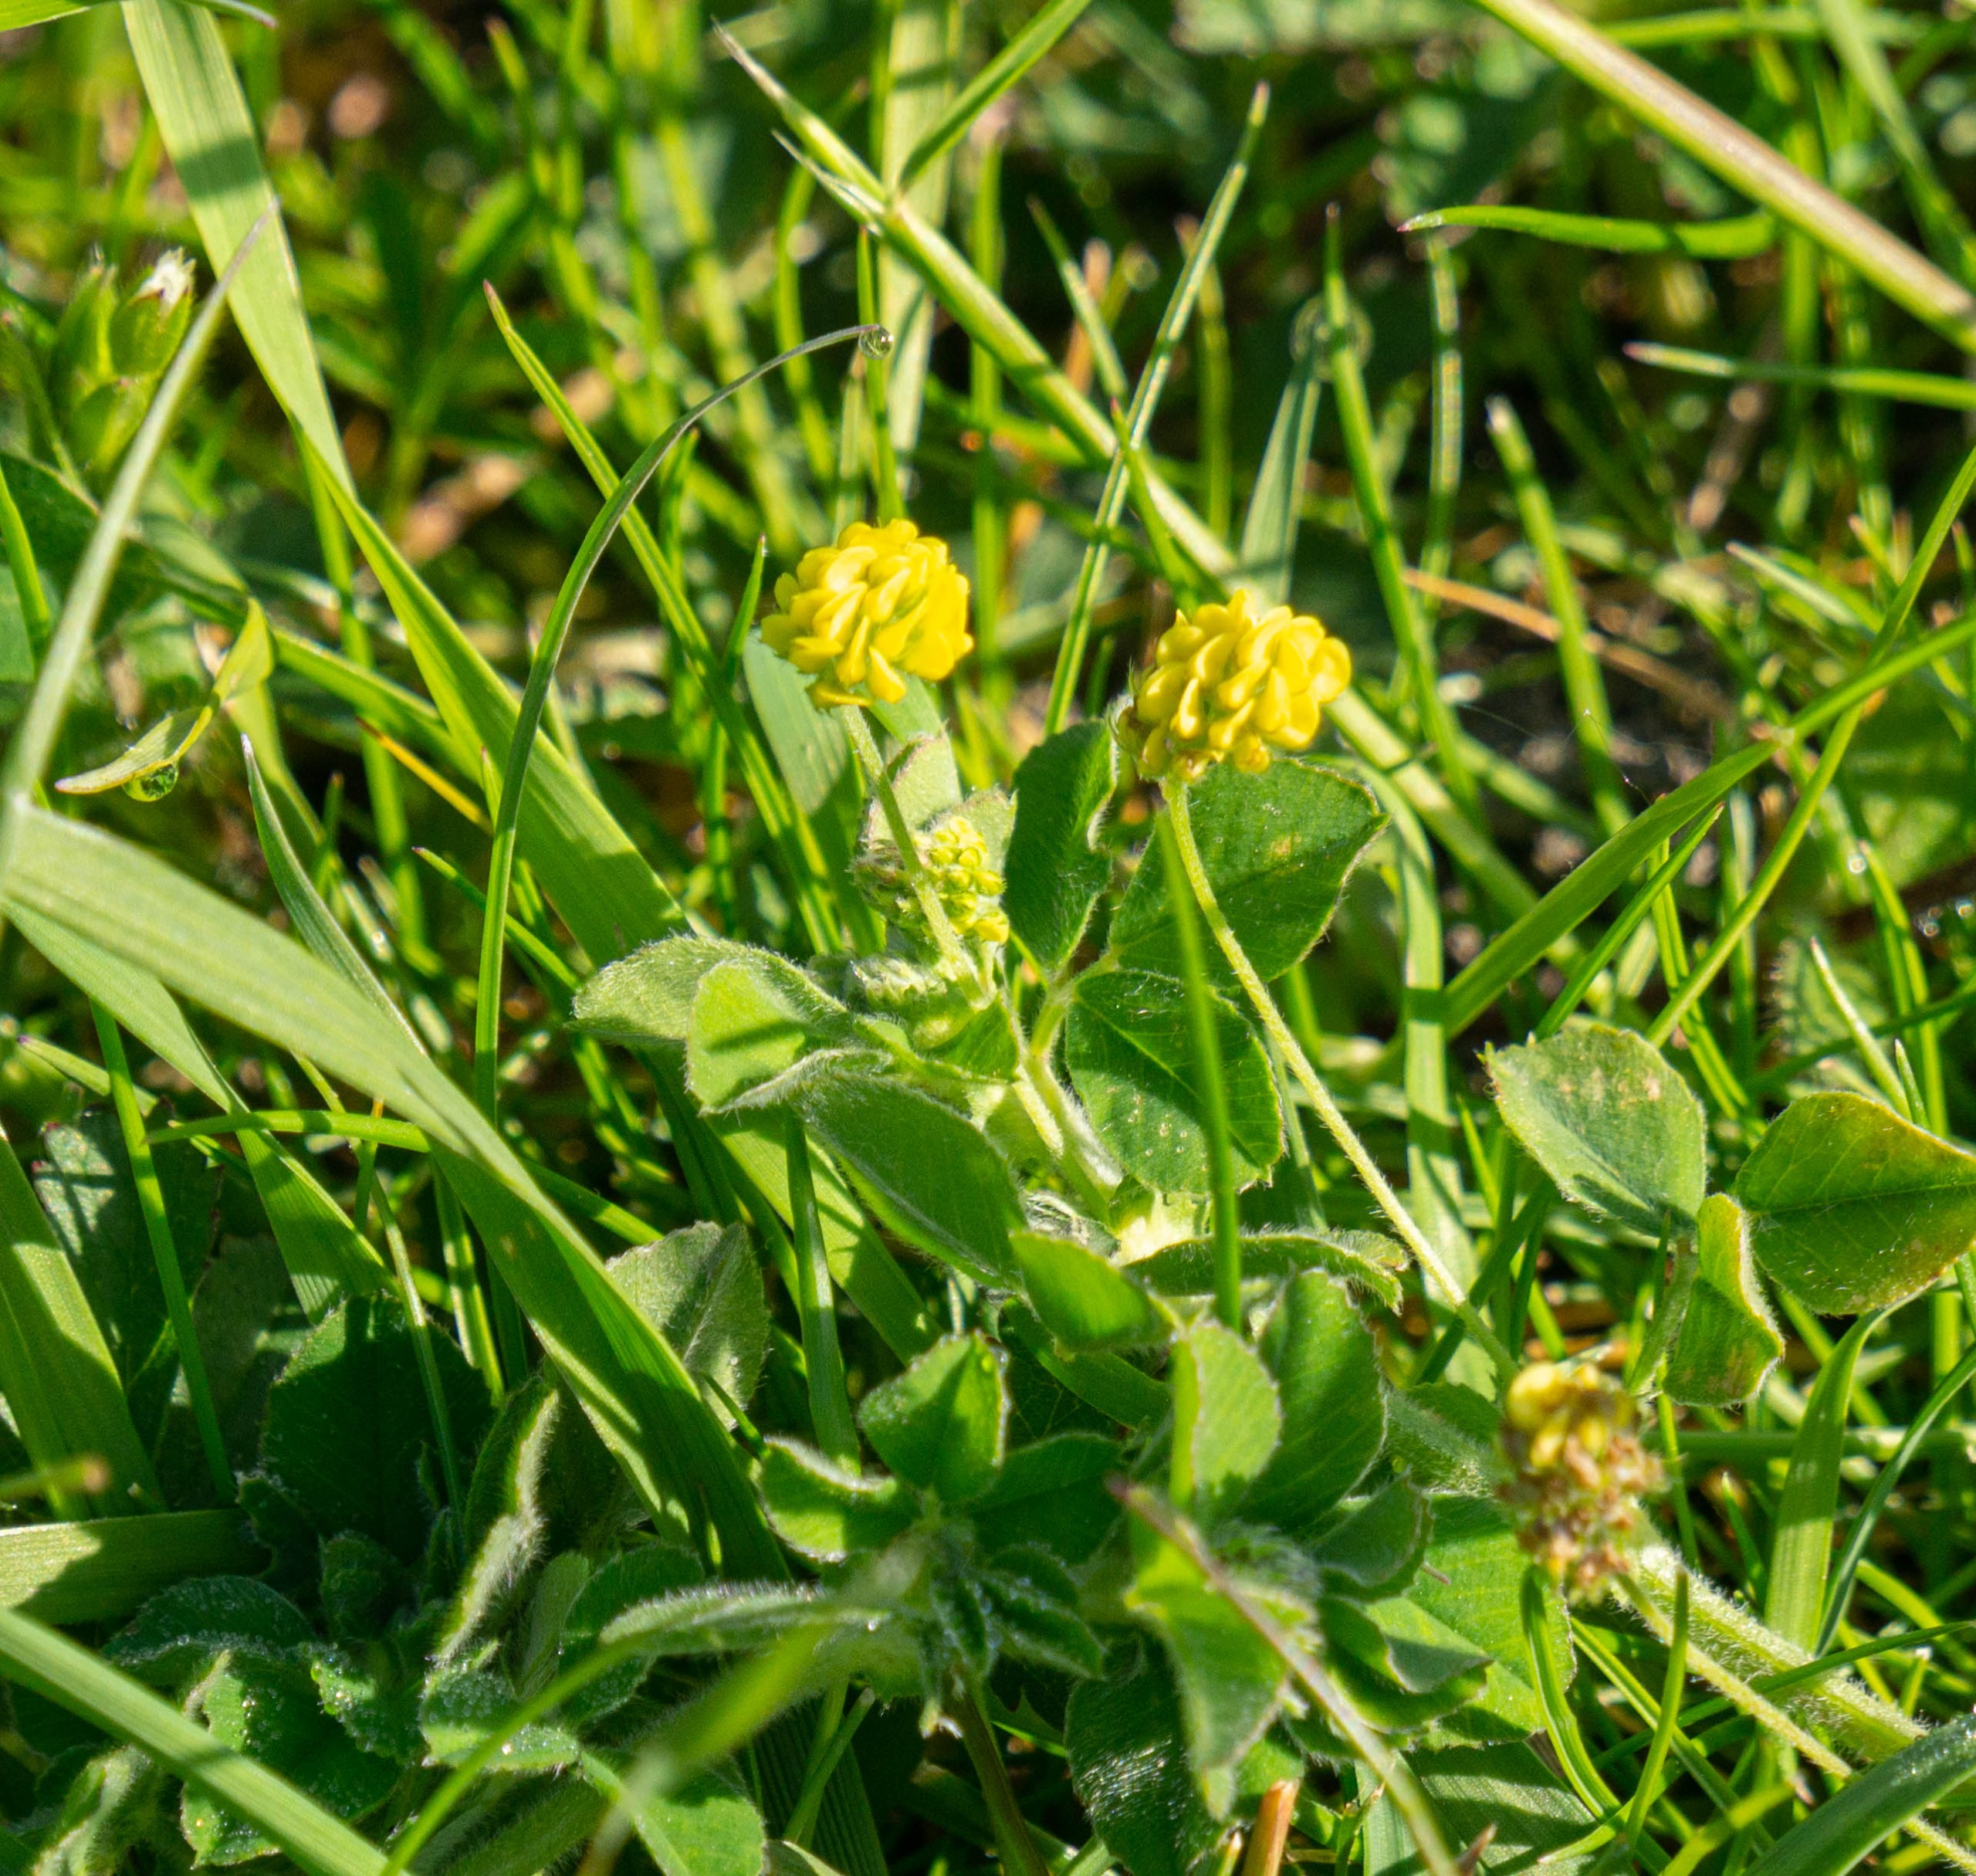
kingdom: Plantae
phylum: Tracheophyta
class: Magnoliopsida
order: Fabales
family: Fabaceae
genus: Medicago
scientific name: Medicago lupulina
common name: Humle-sneglebælg
